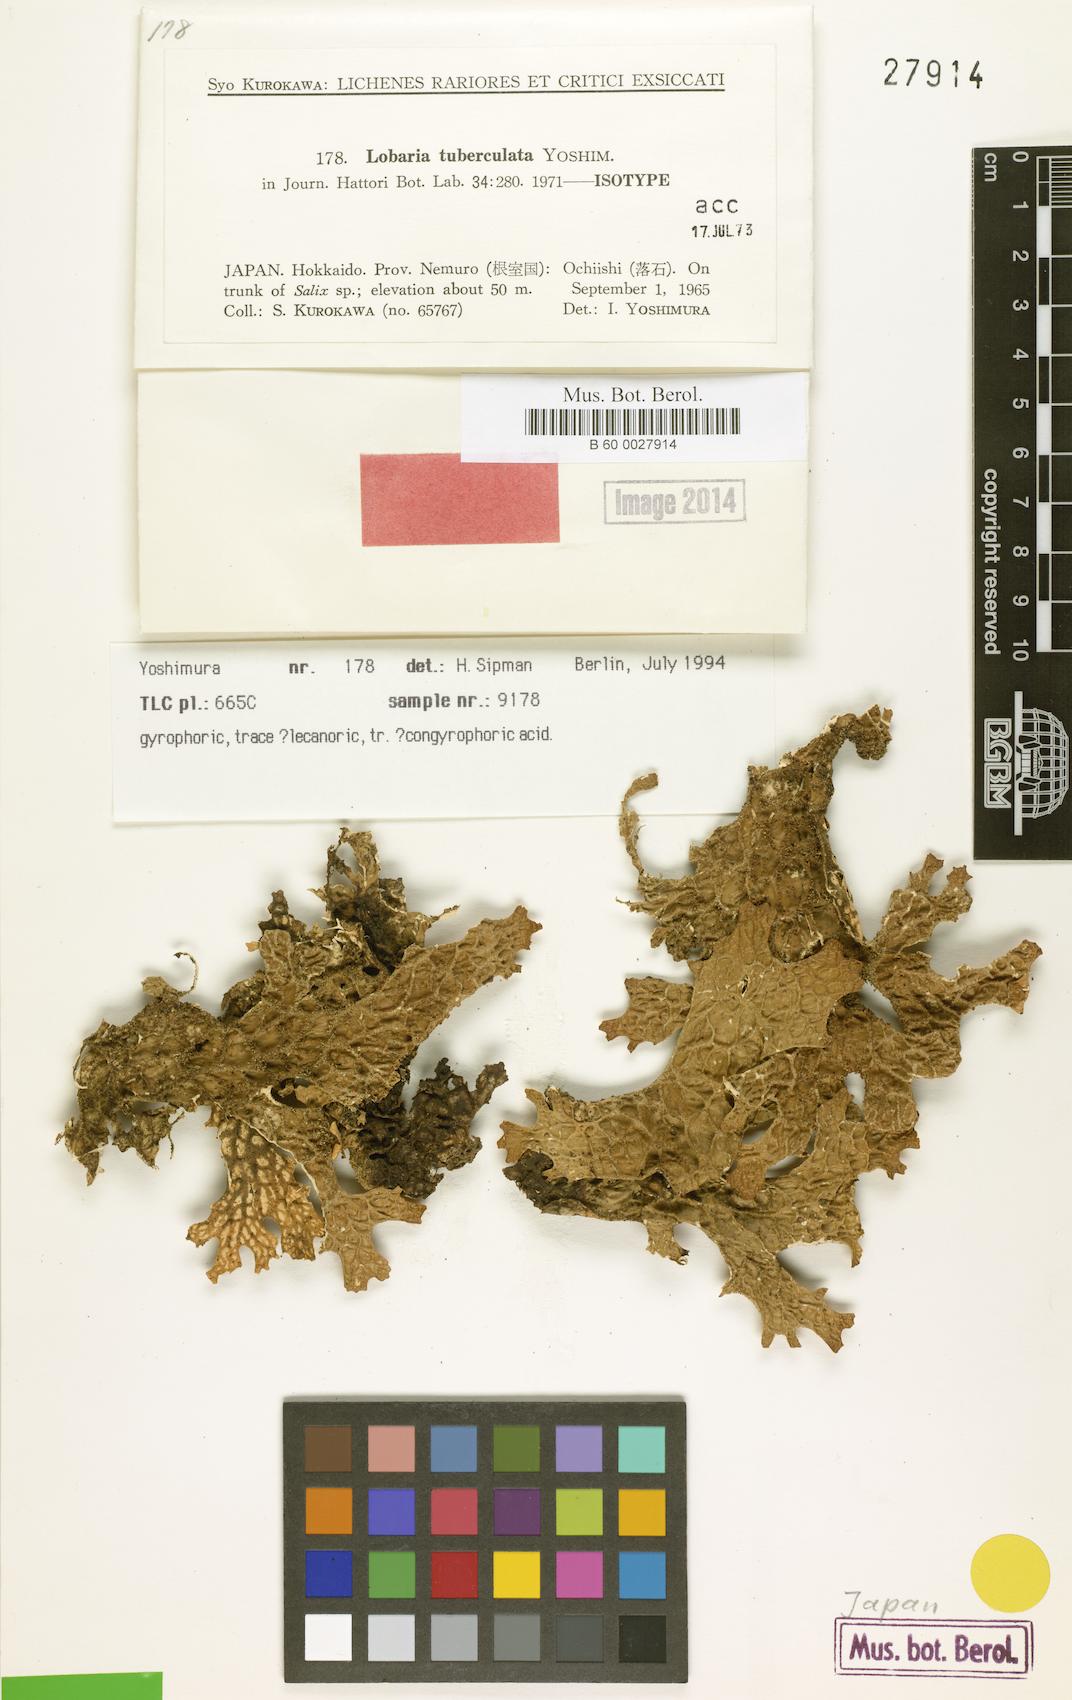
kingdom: Fungi
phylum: Ascomycota
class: Lecanoromycetes
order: Peltigerales
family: Lobariaceae
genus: Lobaria
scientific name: Lobaria tuberculata
